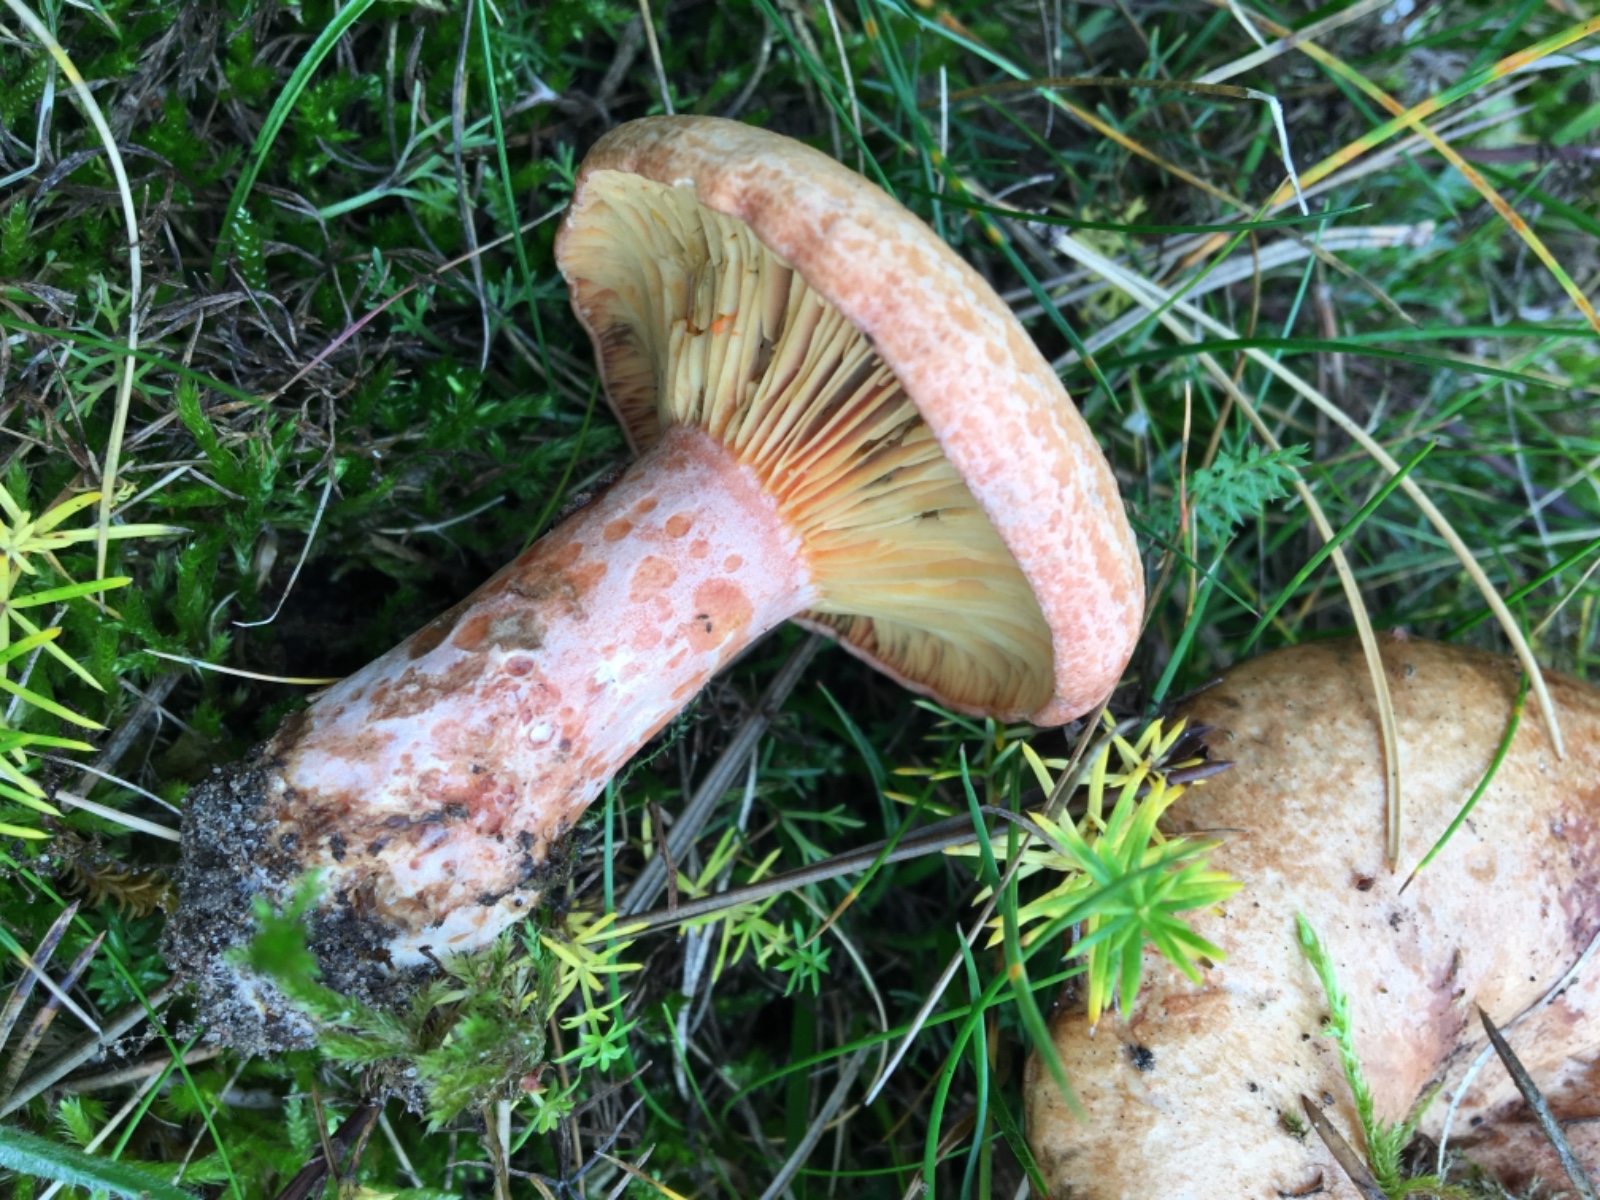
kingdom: Fungi
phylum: Basidiomycota
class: Agaricomycetes
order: Russulales
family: Russulaceae
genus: Lactarius
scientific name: Lactarius deliciosus
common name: velsmagende mælkehat
